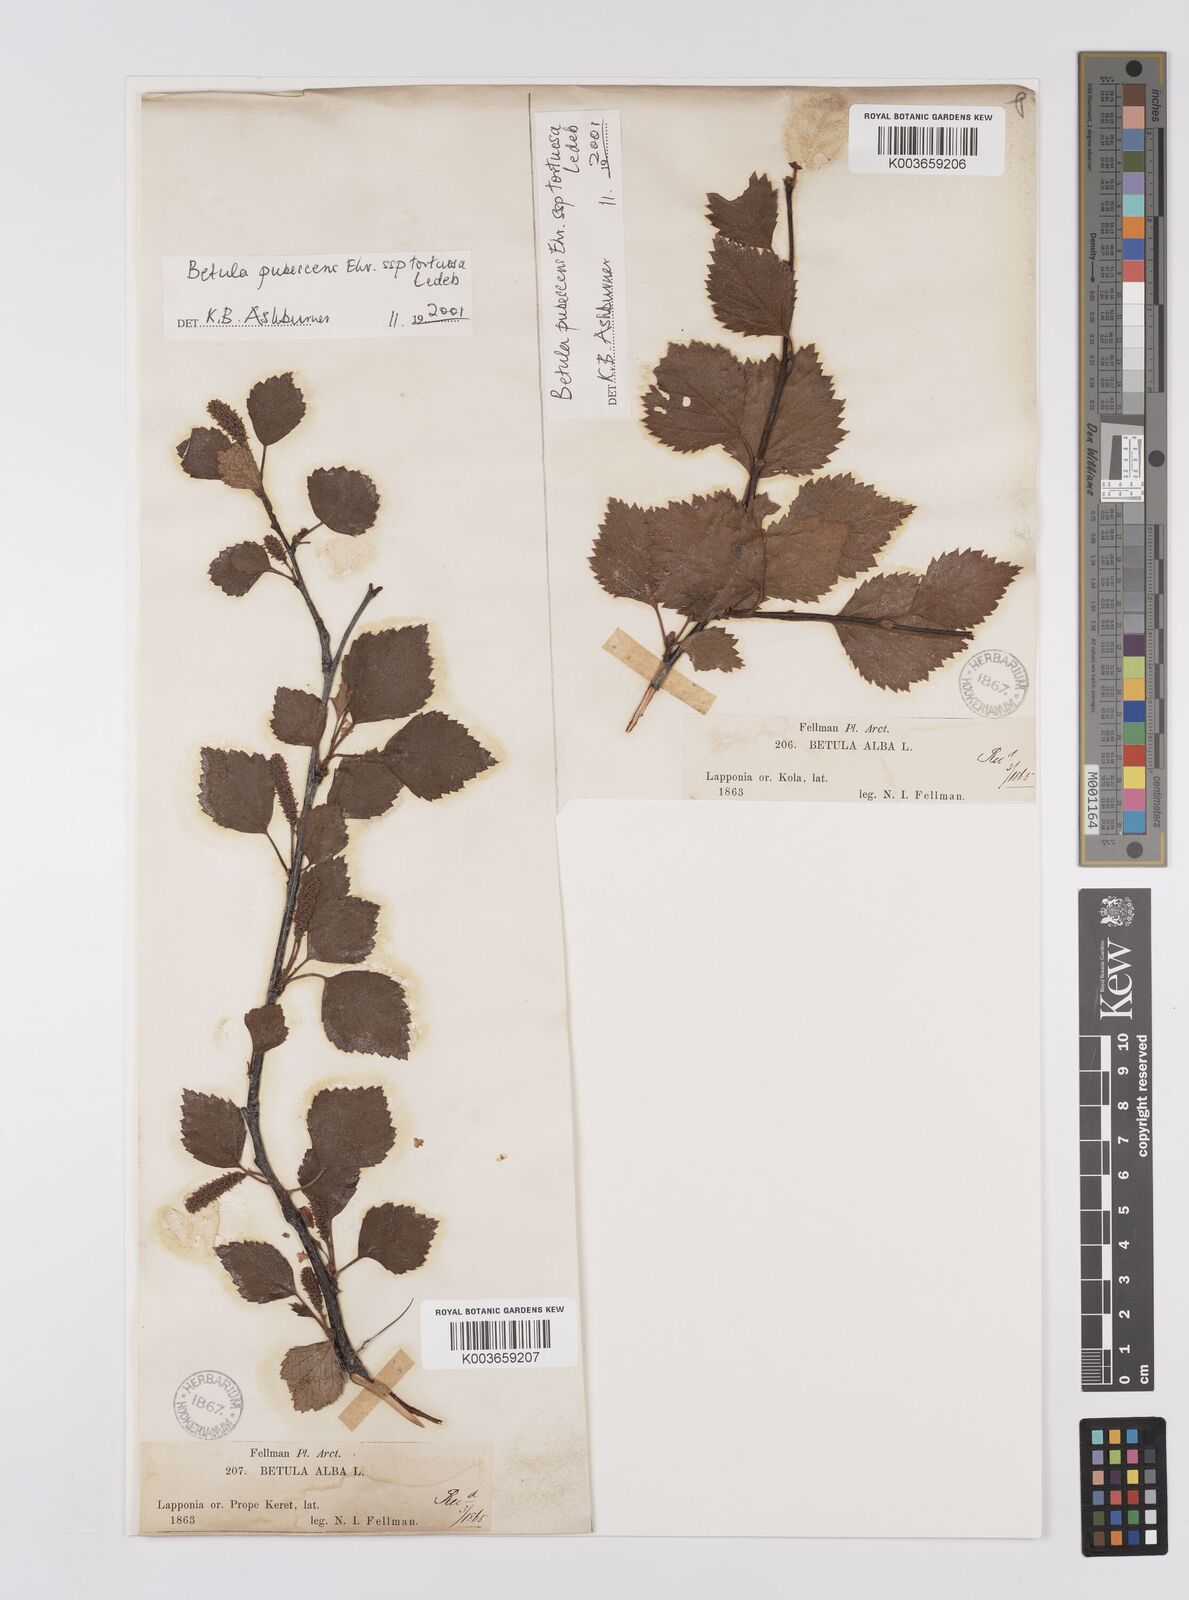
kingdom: Plantae
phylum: Tracheophyta
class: Magnoliopsida
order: Fagales
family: Betulaceae
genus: Betula
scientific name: Betula pubescens
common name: Downy birch
